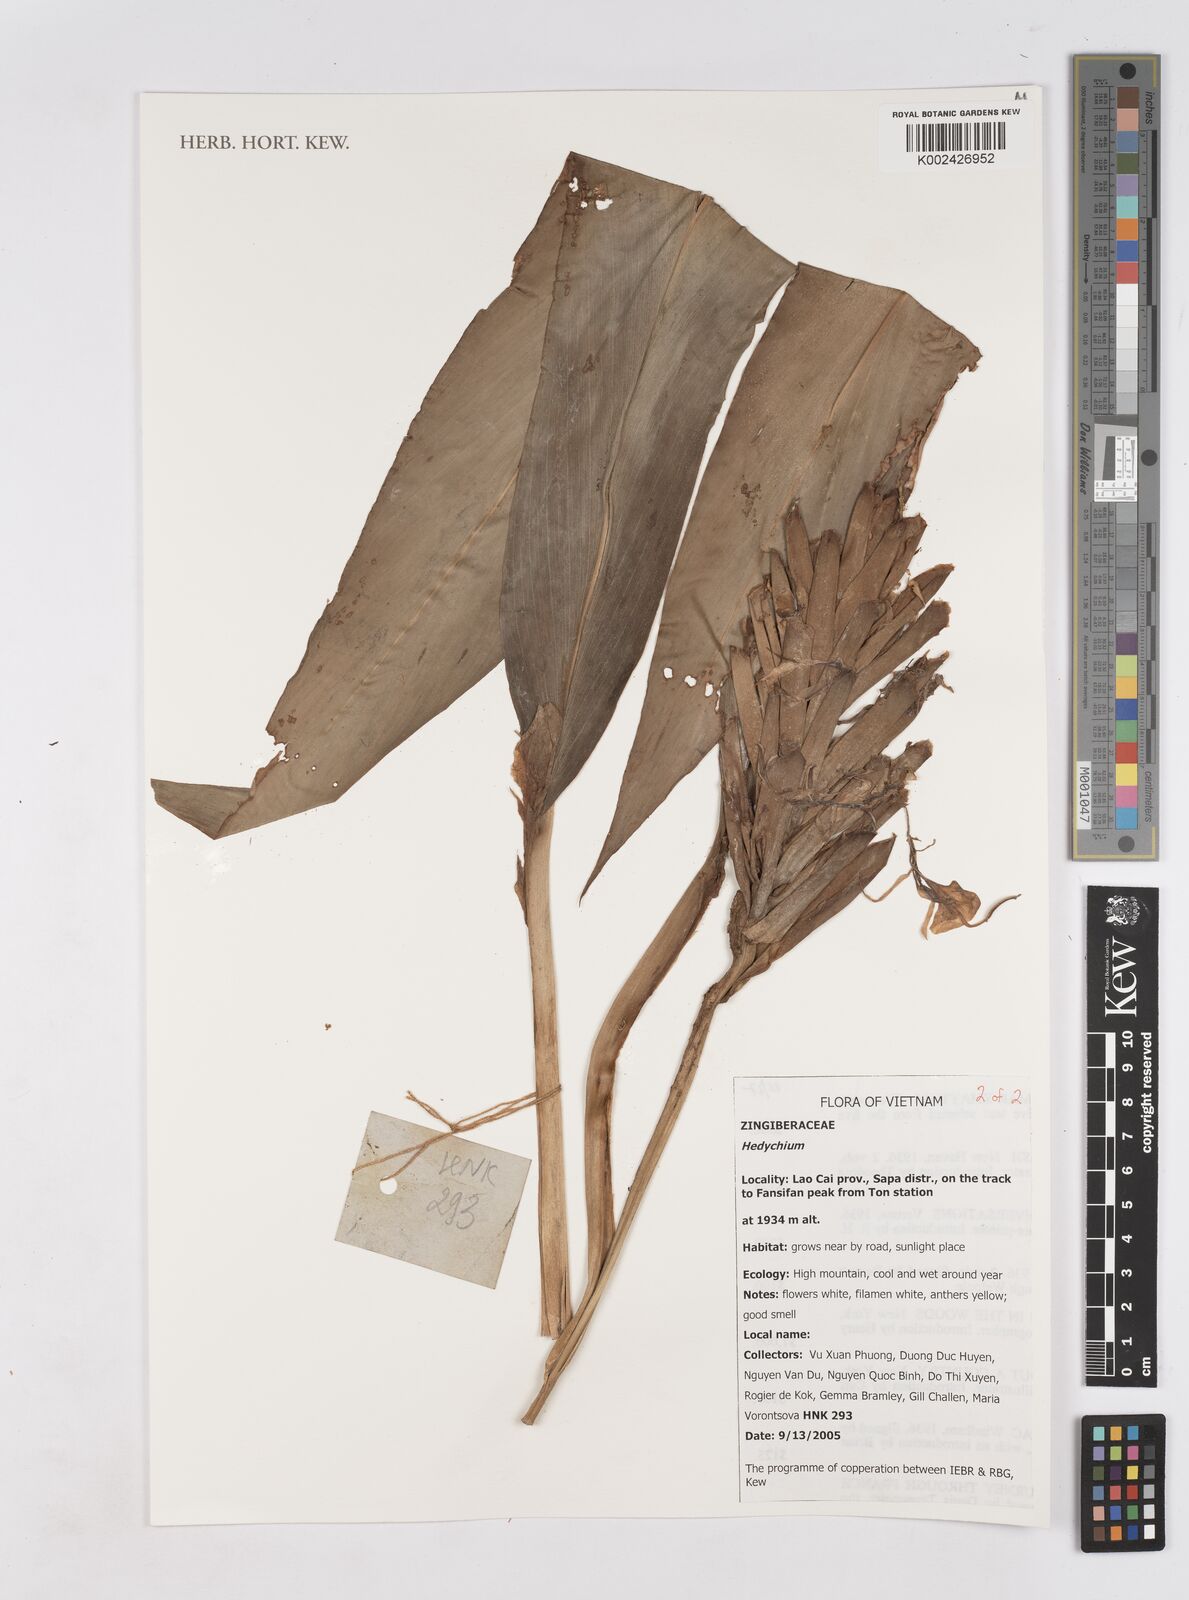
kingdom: Plantae
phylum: Tracheophyta
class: Liliopsida
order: Zingiberales
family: Zingiberaceae
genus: Hedychium
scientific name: Hedychium
